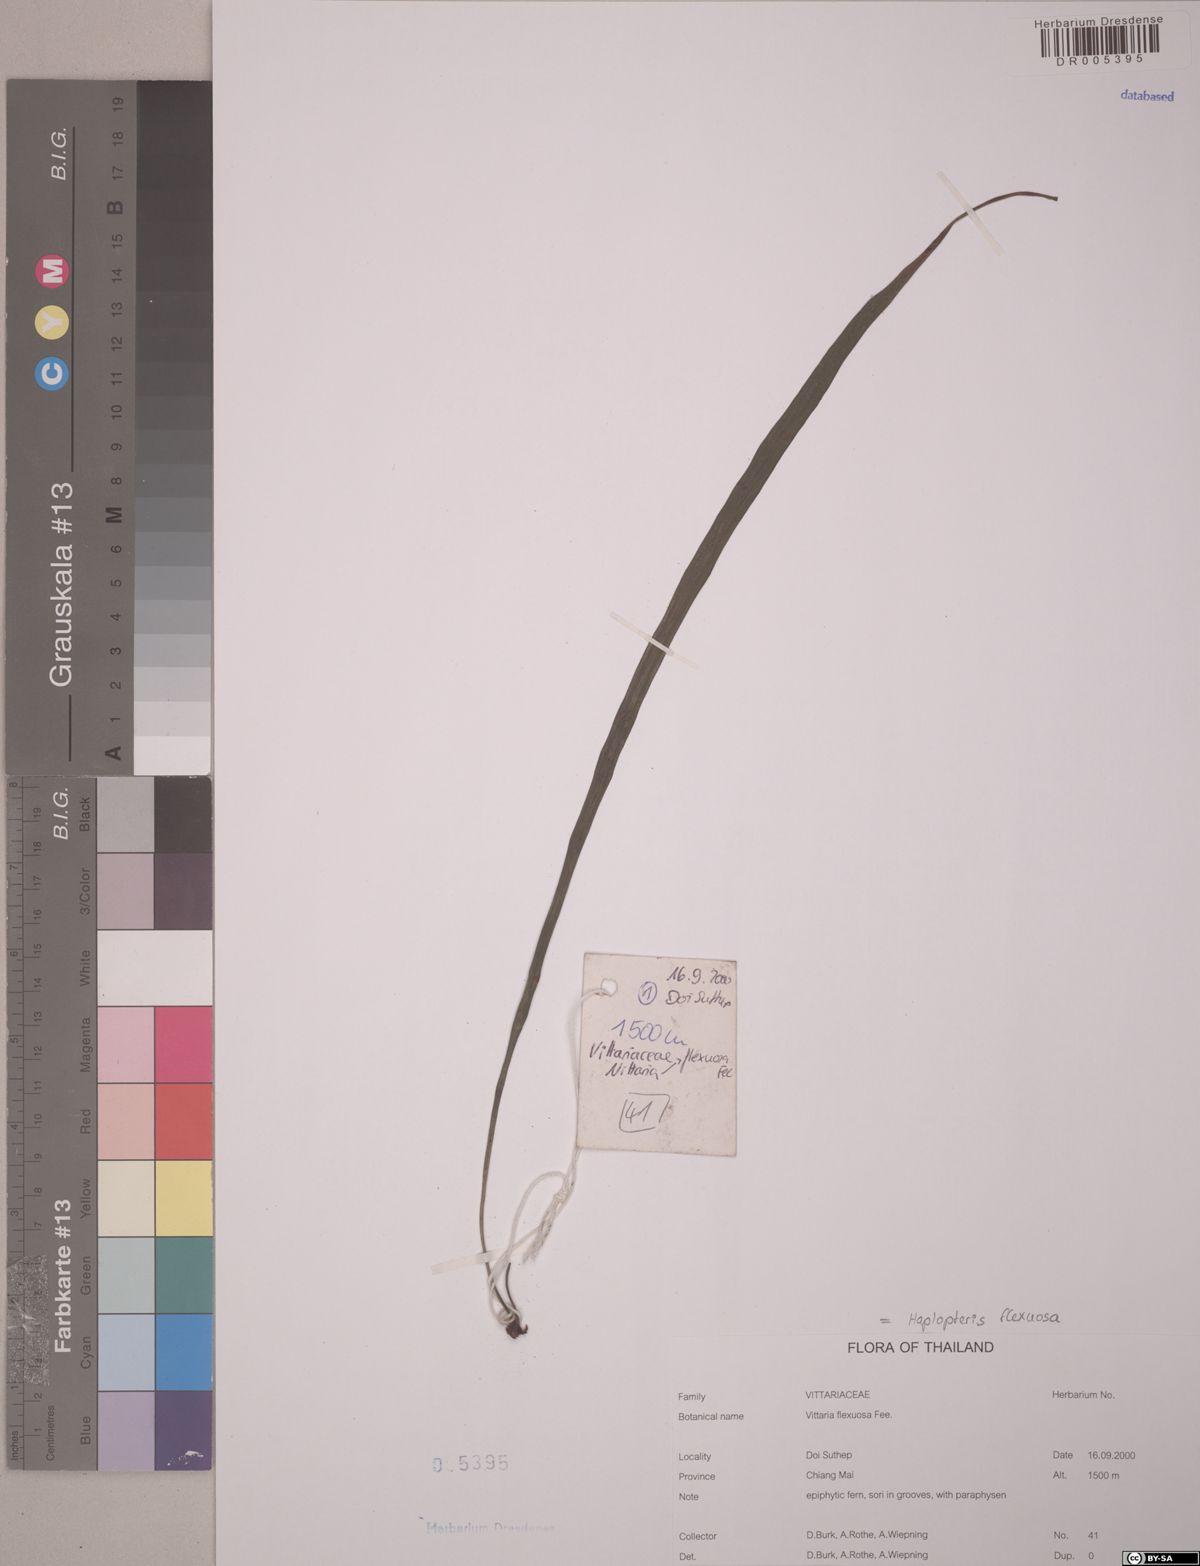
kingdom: Plantae
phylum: Tracheophyta
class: Polypodiopsida
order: Polypodiales
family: Pteridaceae
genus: Haplopteris
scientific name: Haplopteris flexuosa
